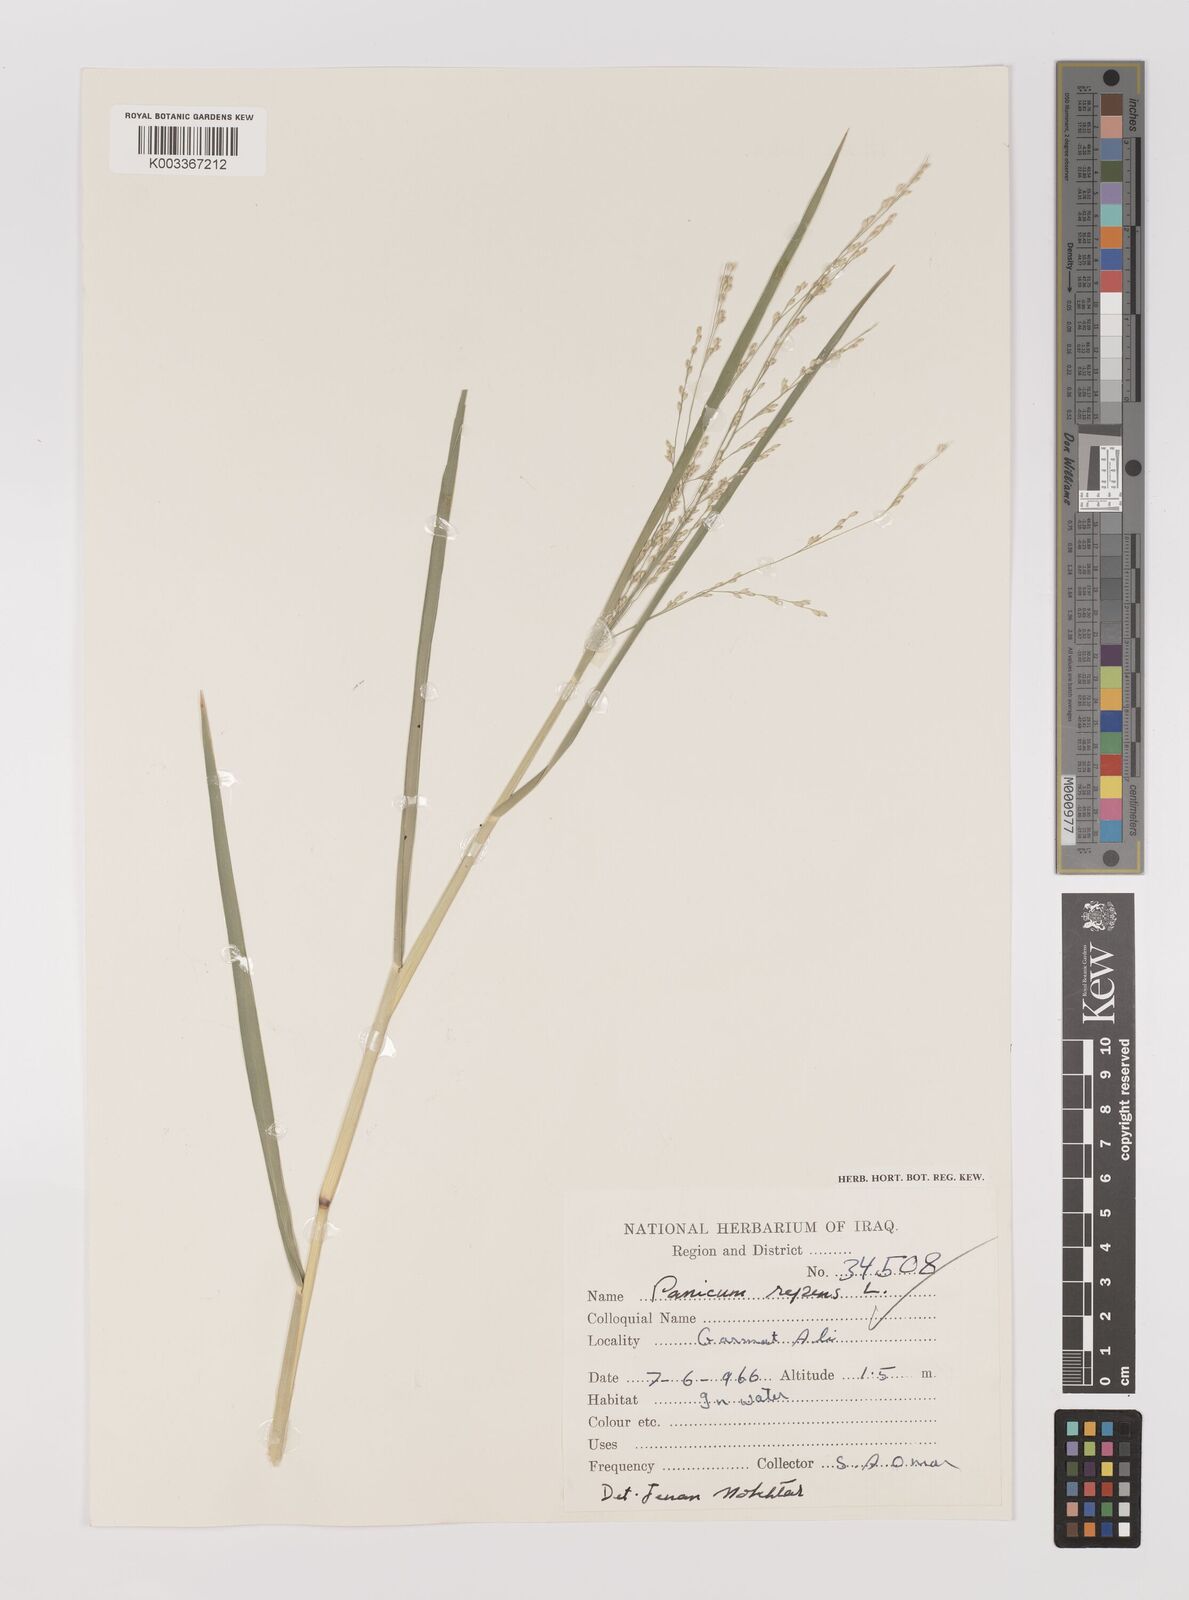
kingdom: Plantae
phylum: Tracheophyta
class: Liliopsida
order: Poales
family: Poaceae
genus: Panicum
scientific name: Panicum repens
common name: Torpedo grass
